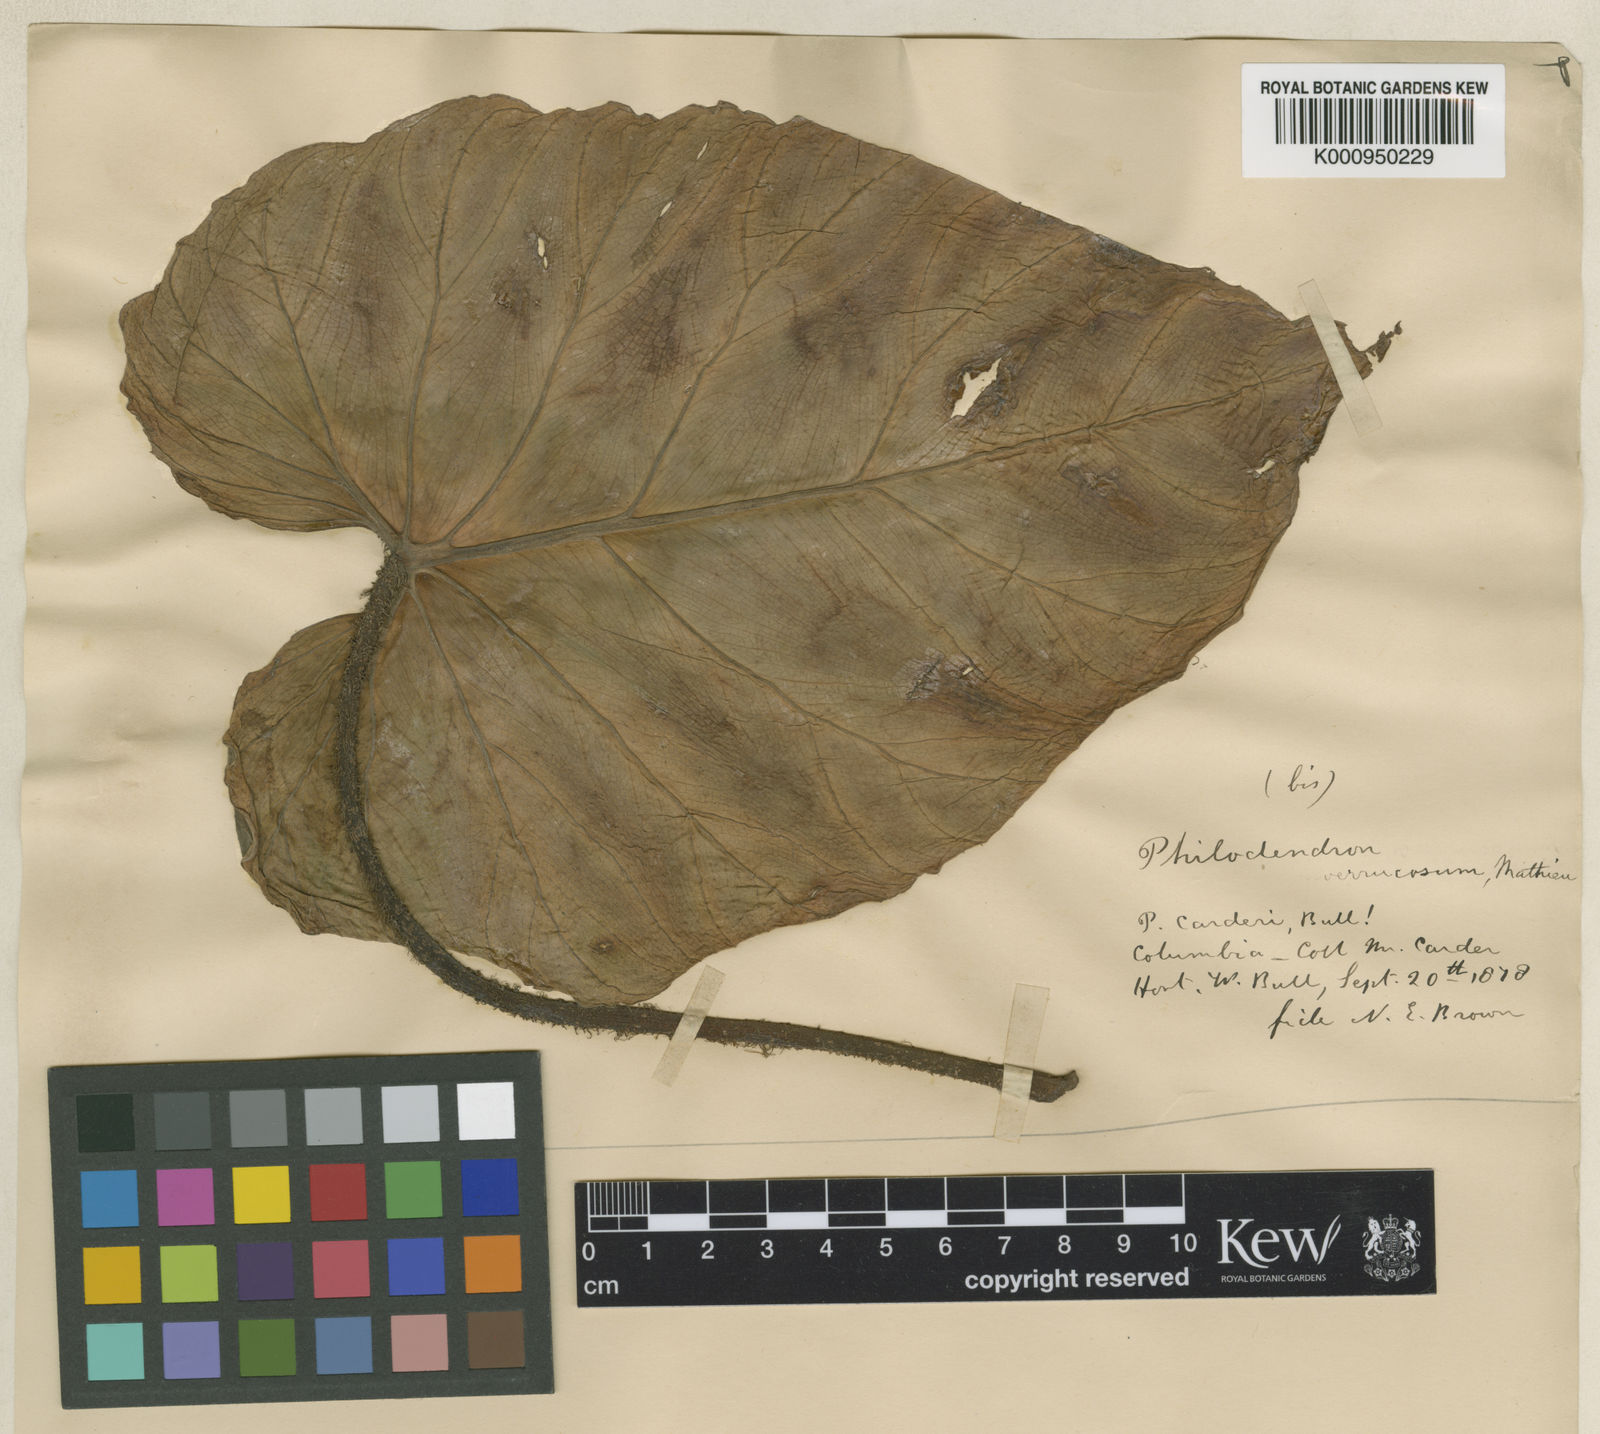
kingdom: Plantae
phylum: Tracheophyta
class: Liliopsida
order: Alismatales
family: Araceae
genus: Philodendron
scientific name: Philodendron verrucosum
